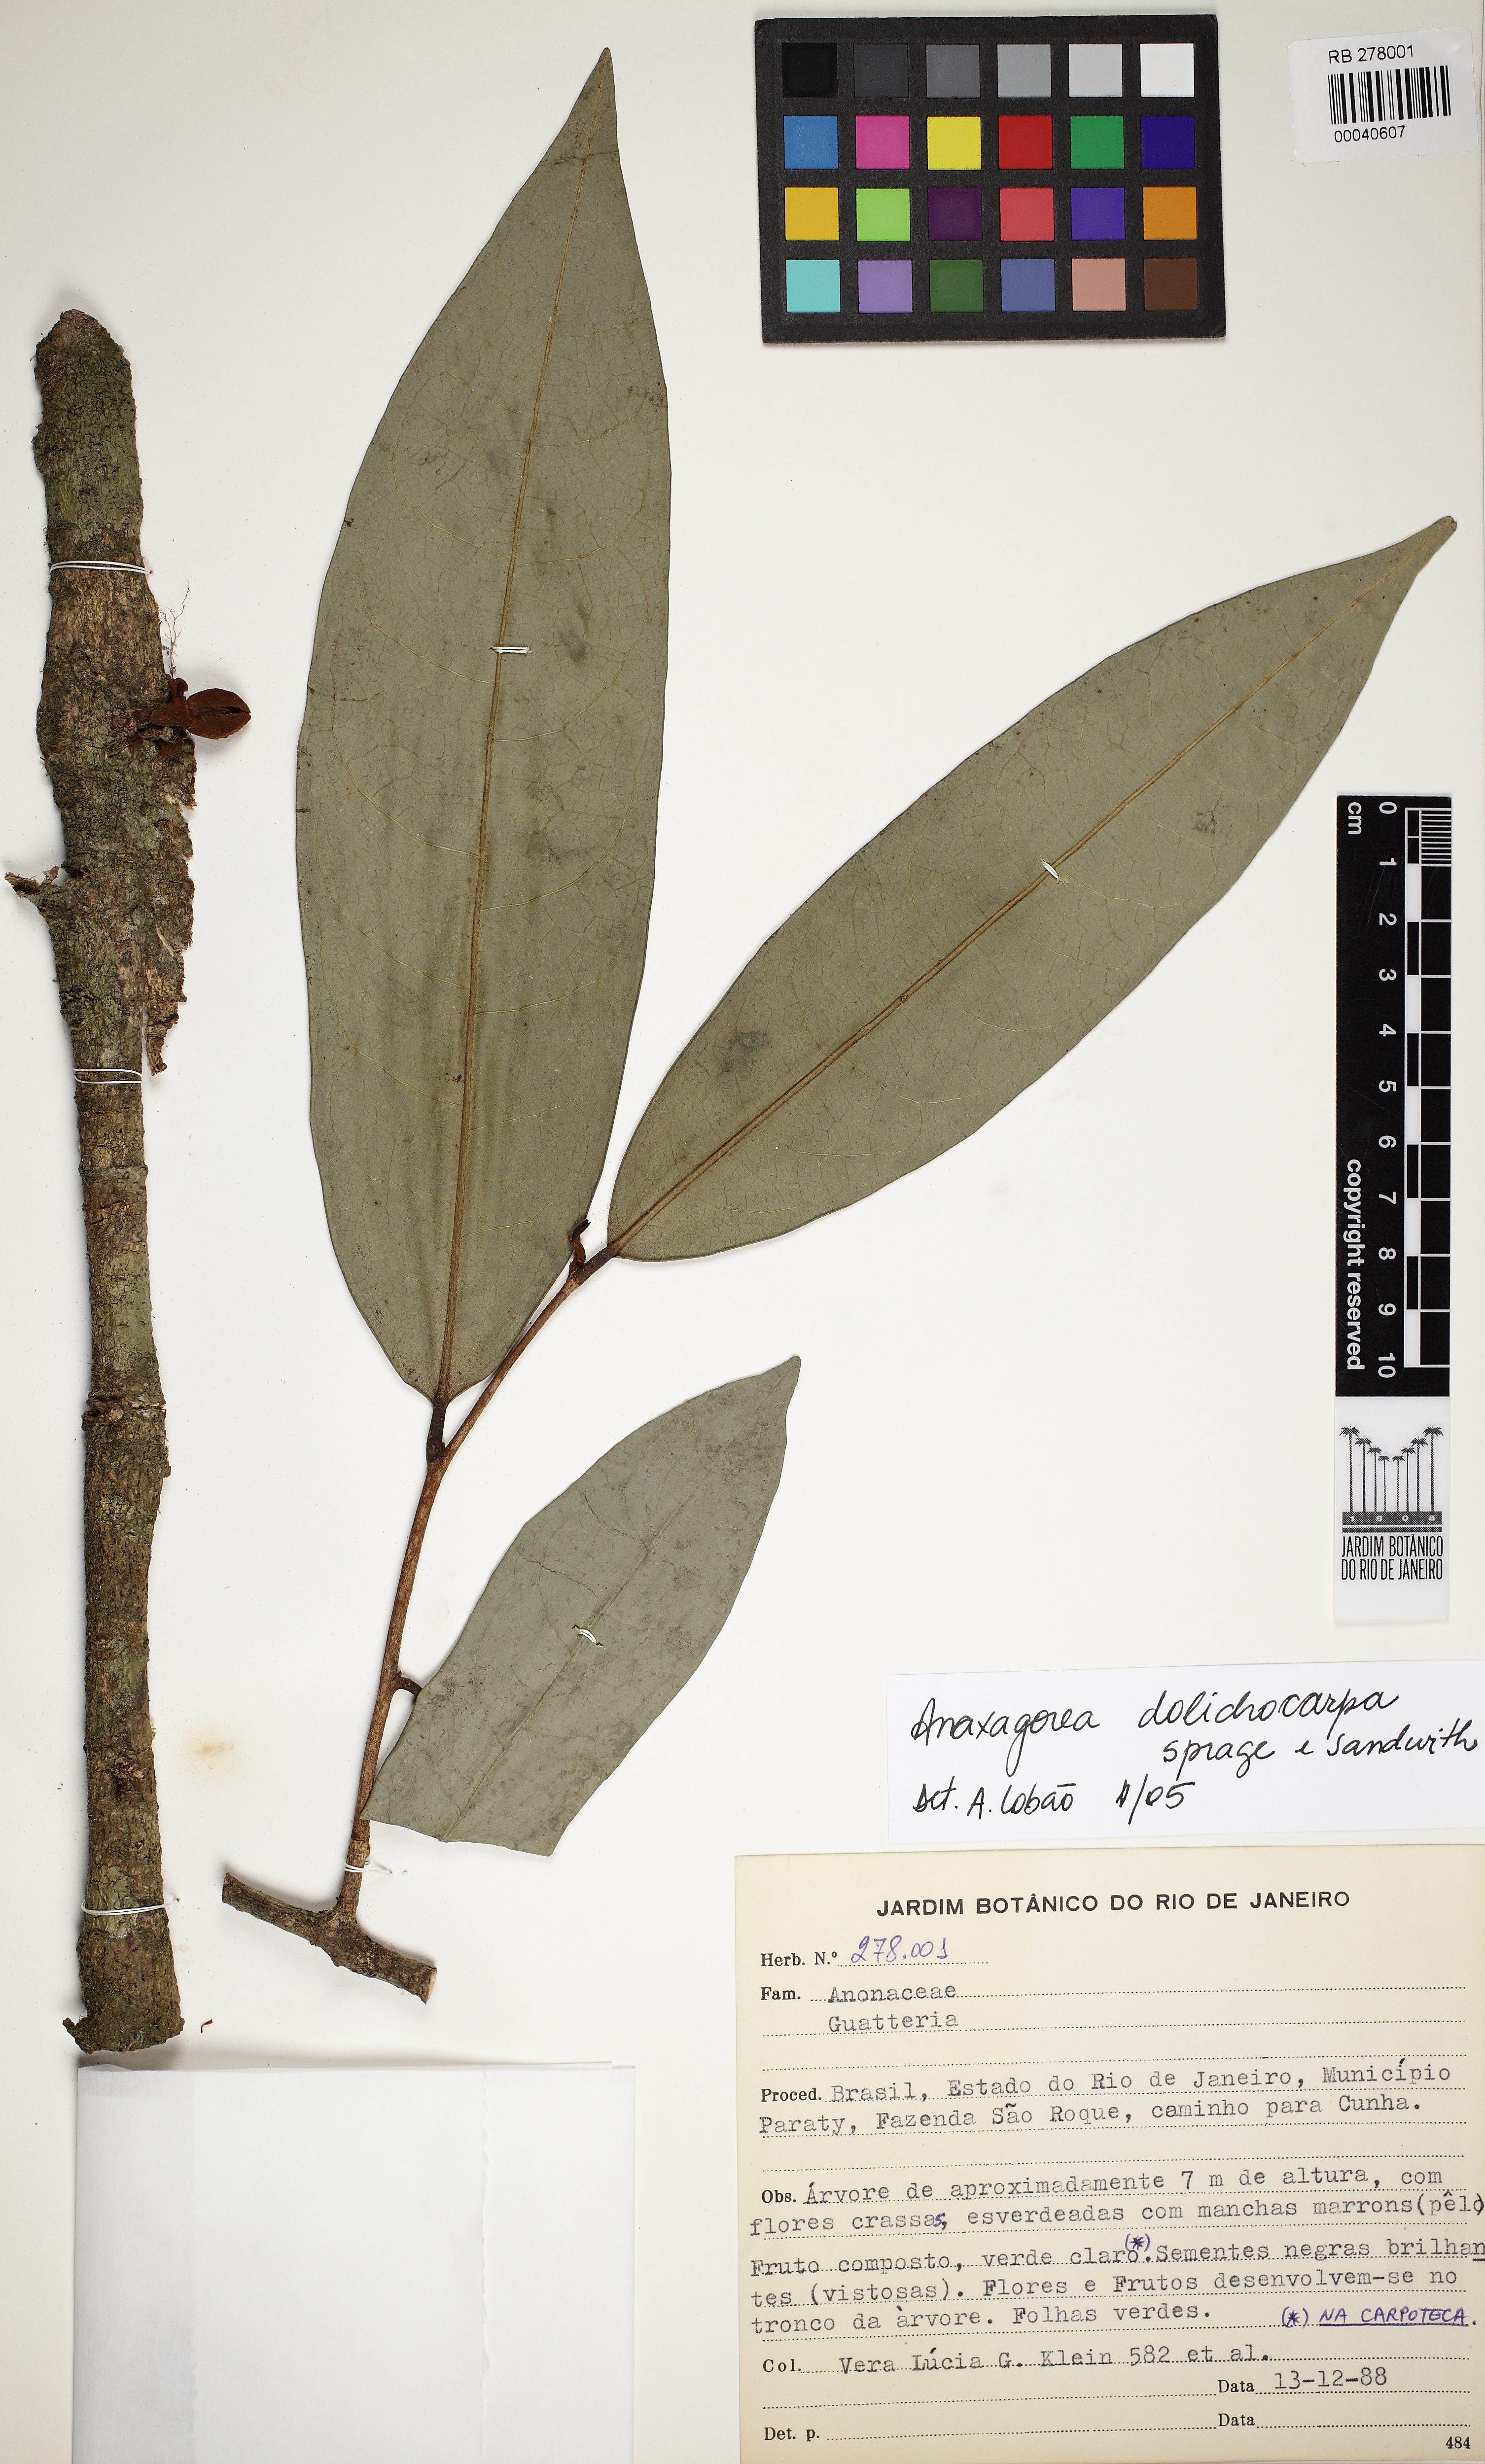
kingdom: Plantae
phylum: Tracheophyta
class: Magnoliopsida
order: Magnoliales
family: Annonaceae
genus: Anaxagorea
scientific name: Anaxagorea dolichocarpa
